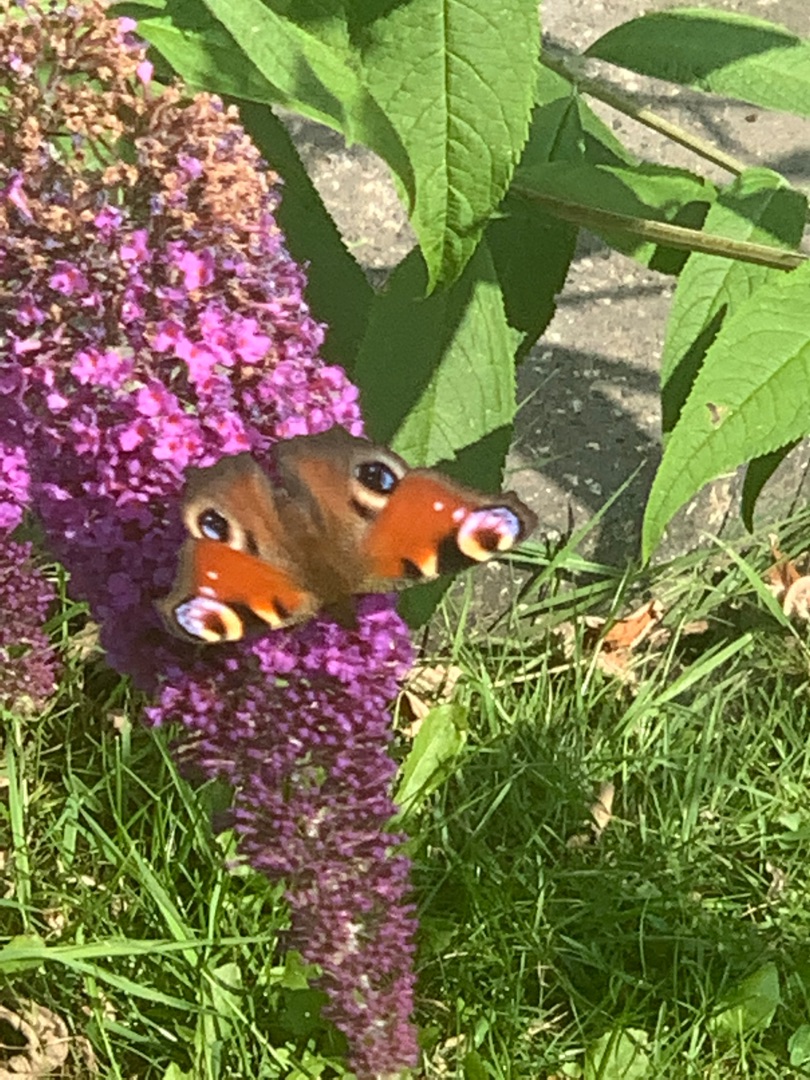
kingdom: Animalia
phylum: Arthropoda
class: Insecta
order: Lepidoptera
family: Nymphalidae
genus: Aglais
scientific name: Aglais io
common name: Dagpåfugleøje
